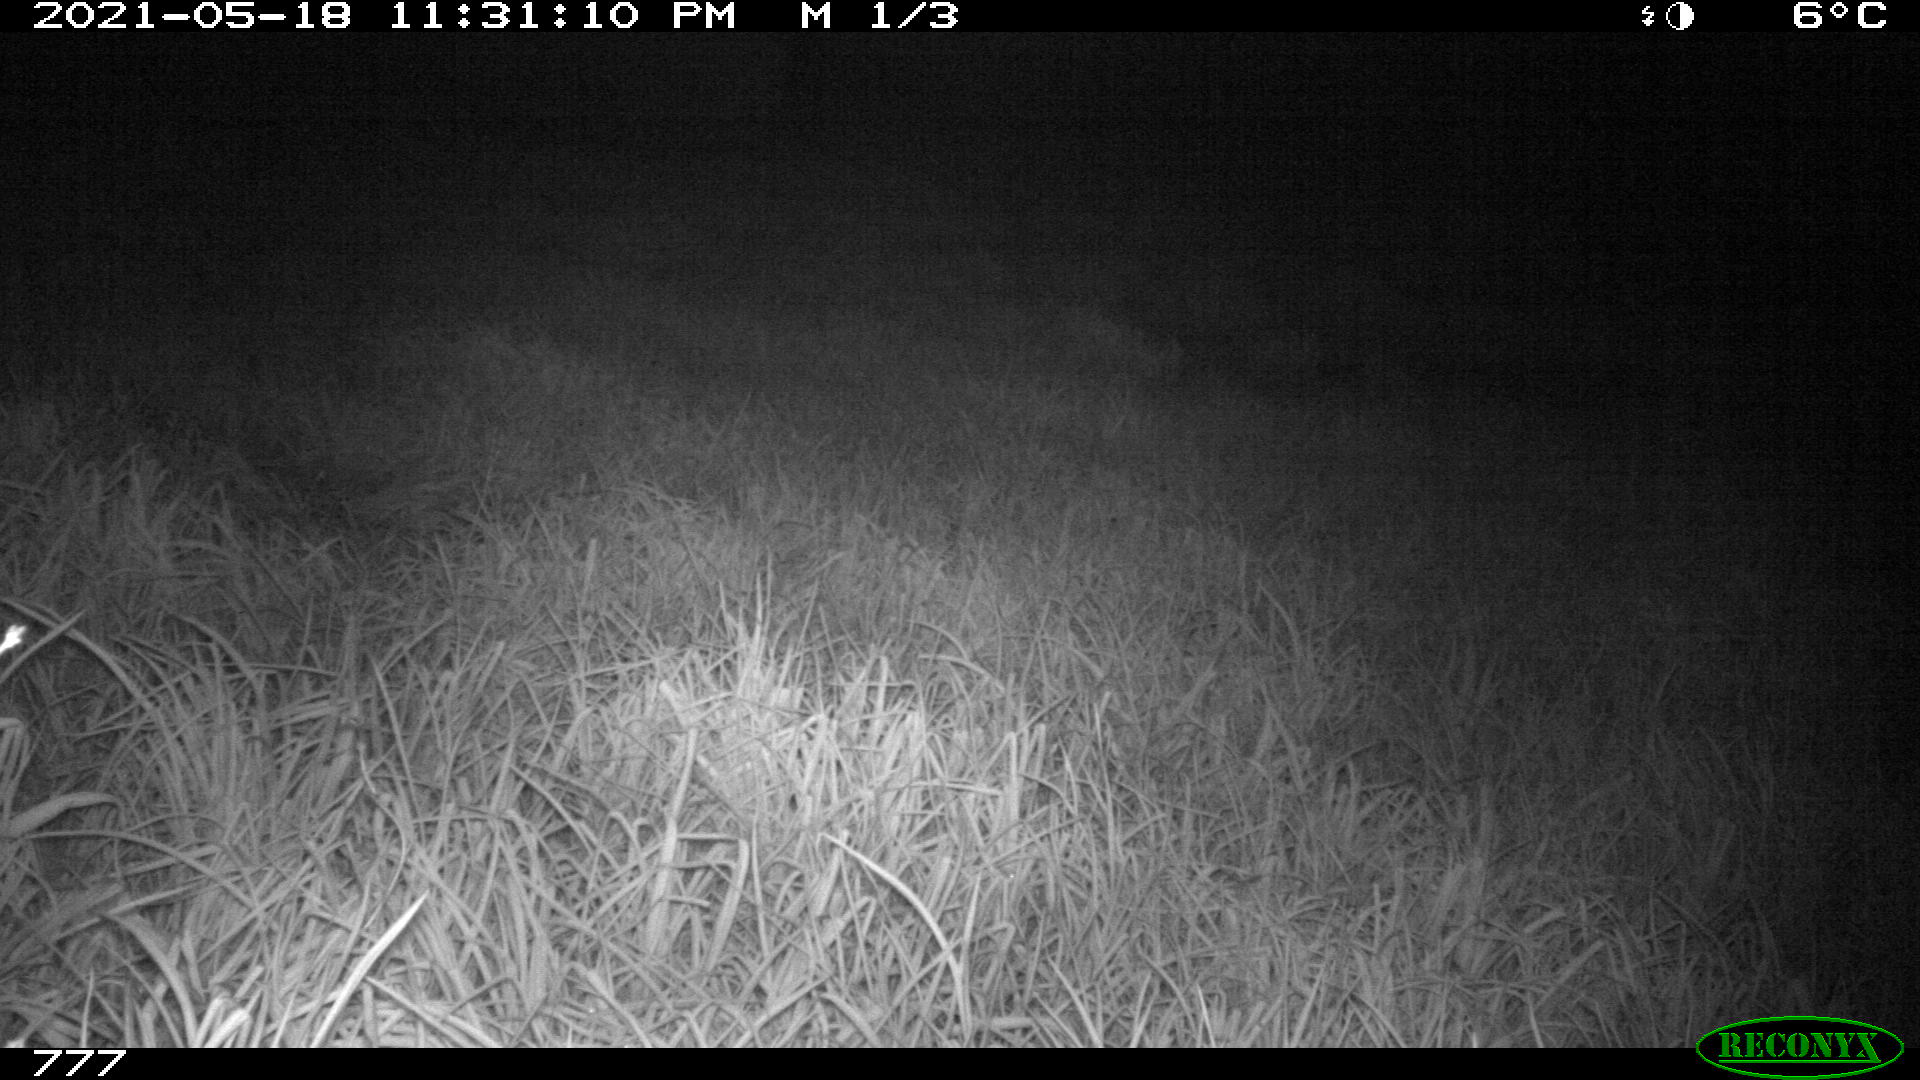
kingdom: Animalia
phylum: Chordata
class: Mammalia
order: Artiodactyla
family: Bovidae
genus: Bos
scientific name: Bos taurus
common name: Domesticated cattle
